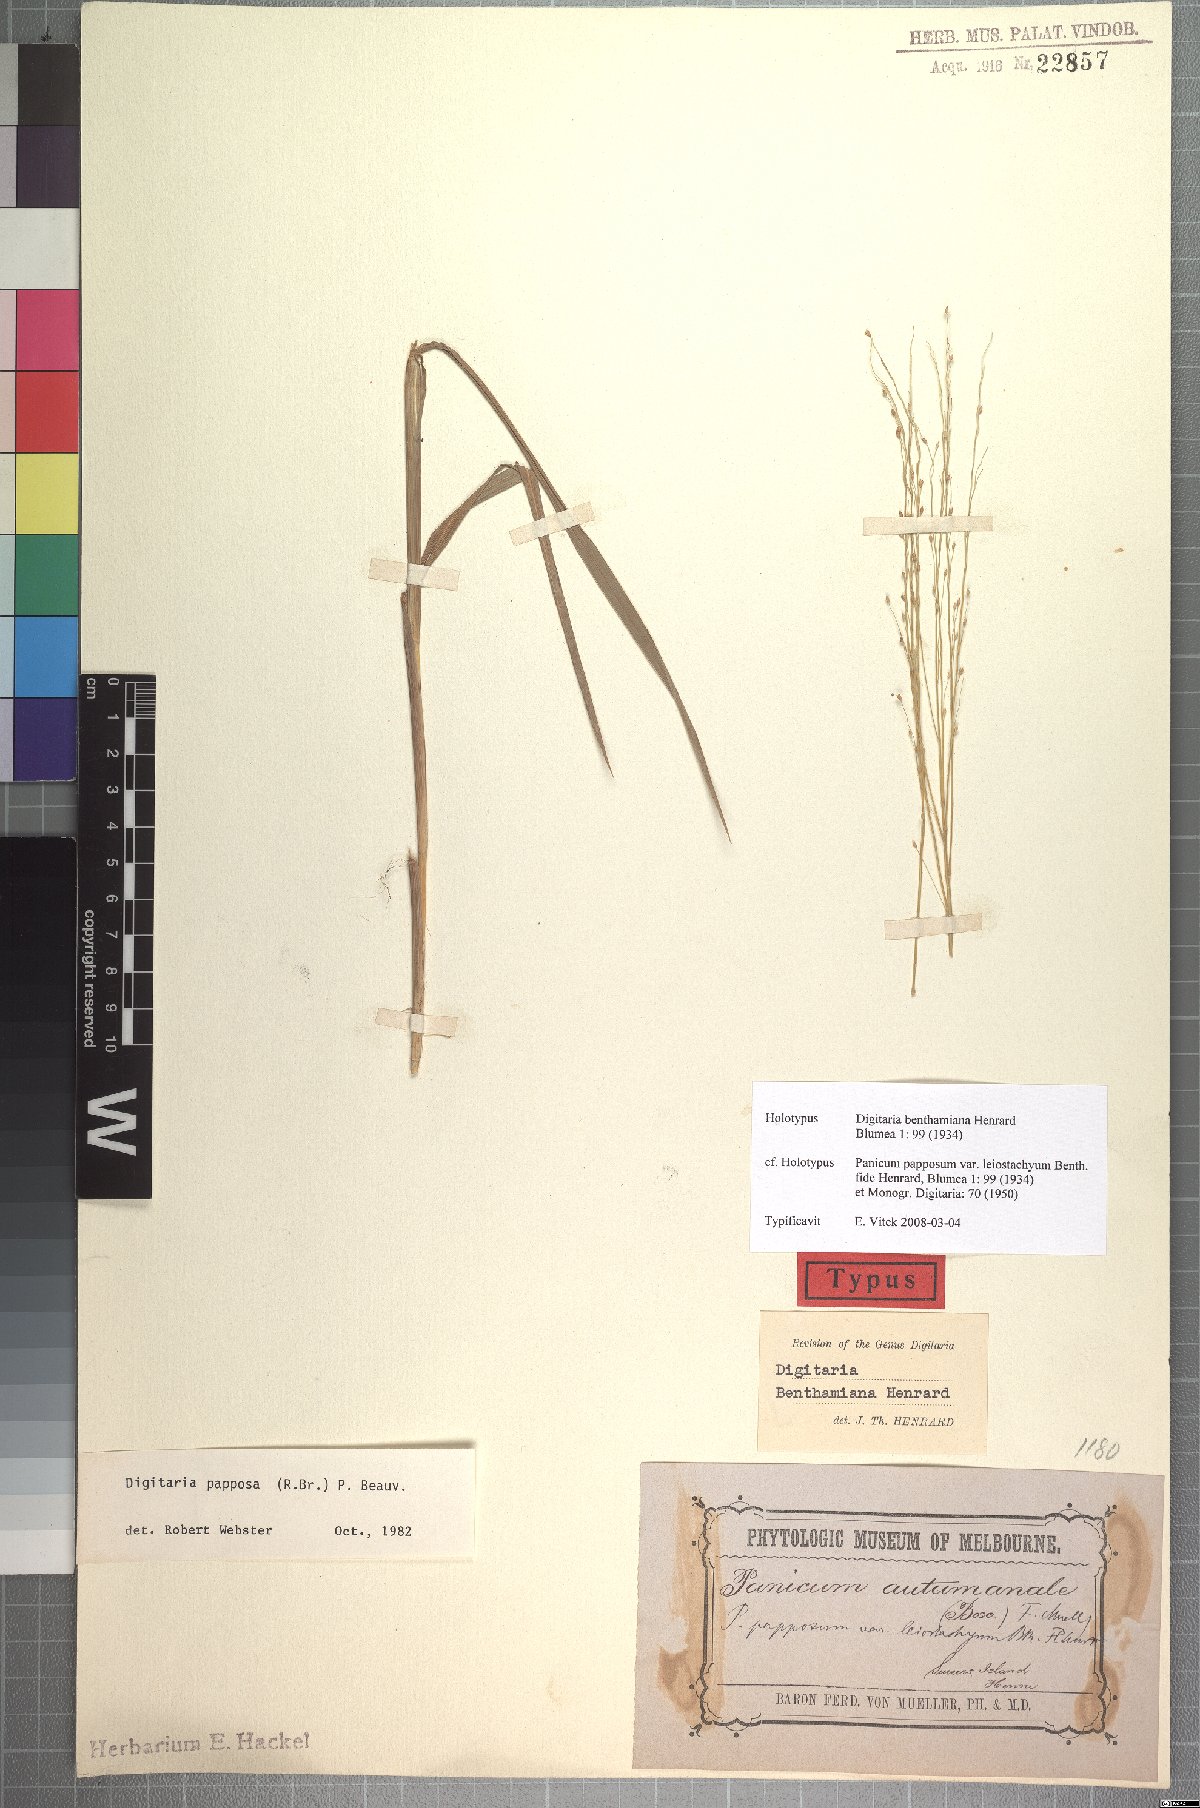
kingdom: Plantae
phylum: Tracheophyta
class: Liliopsida
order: Poales
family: Poaceae
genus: Digitaria
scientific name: Digitaria papposa
